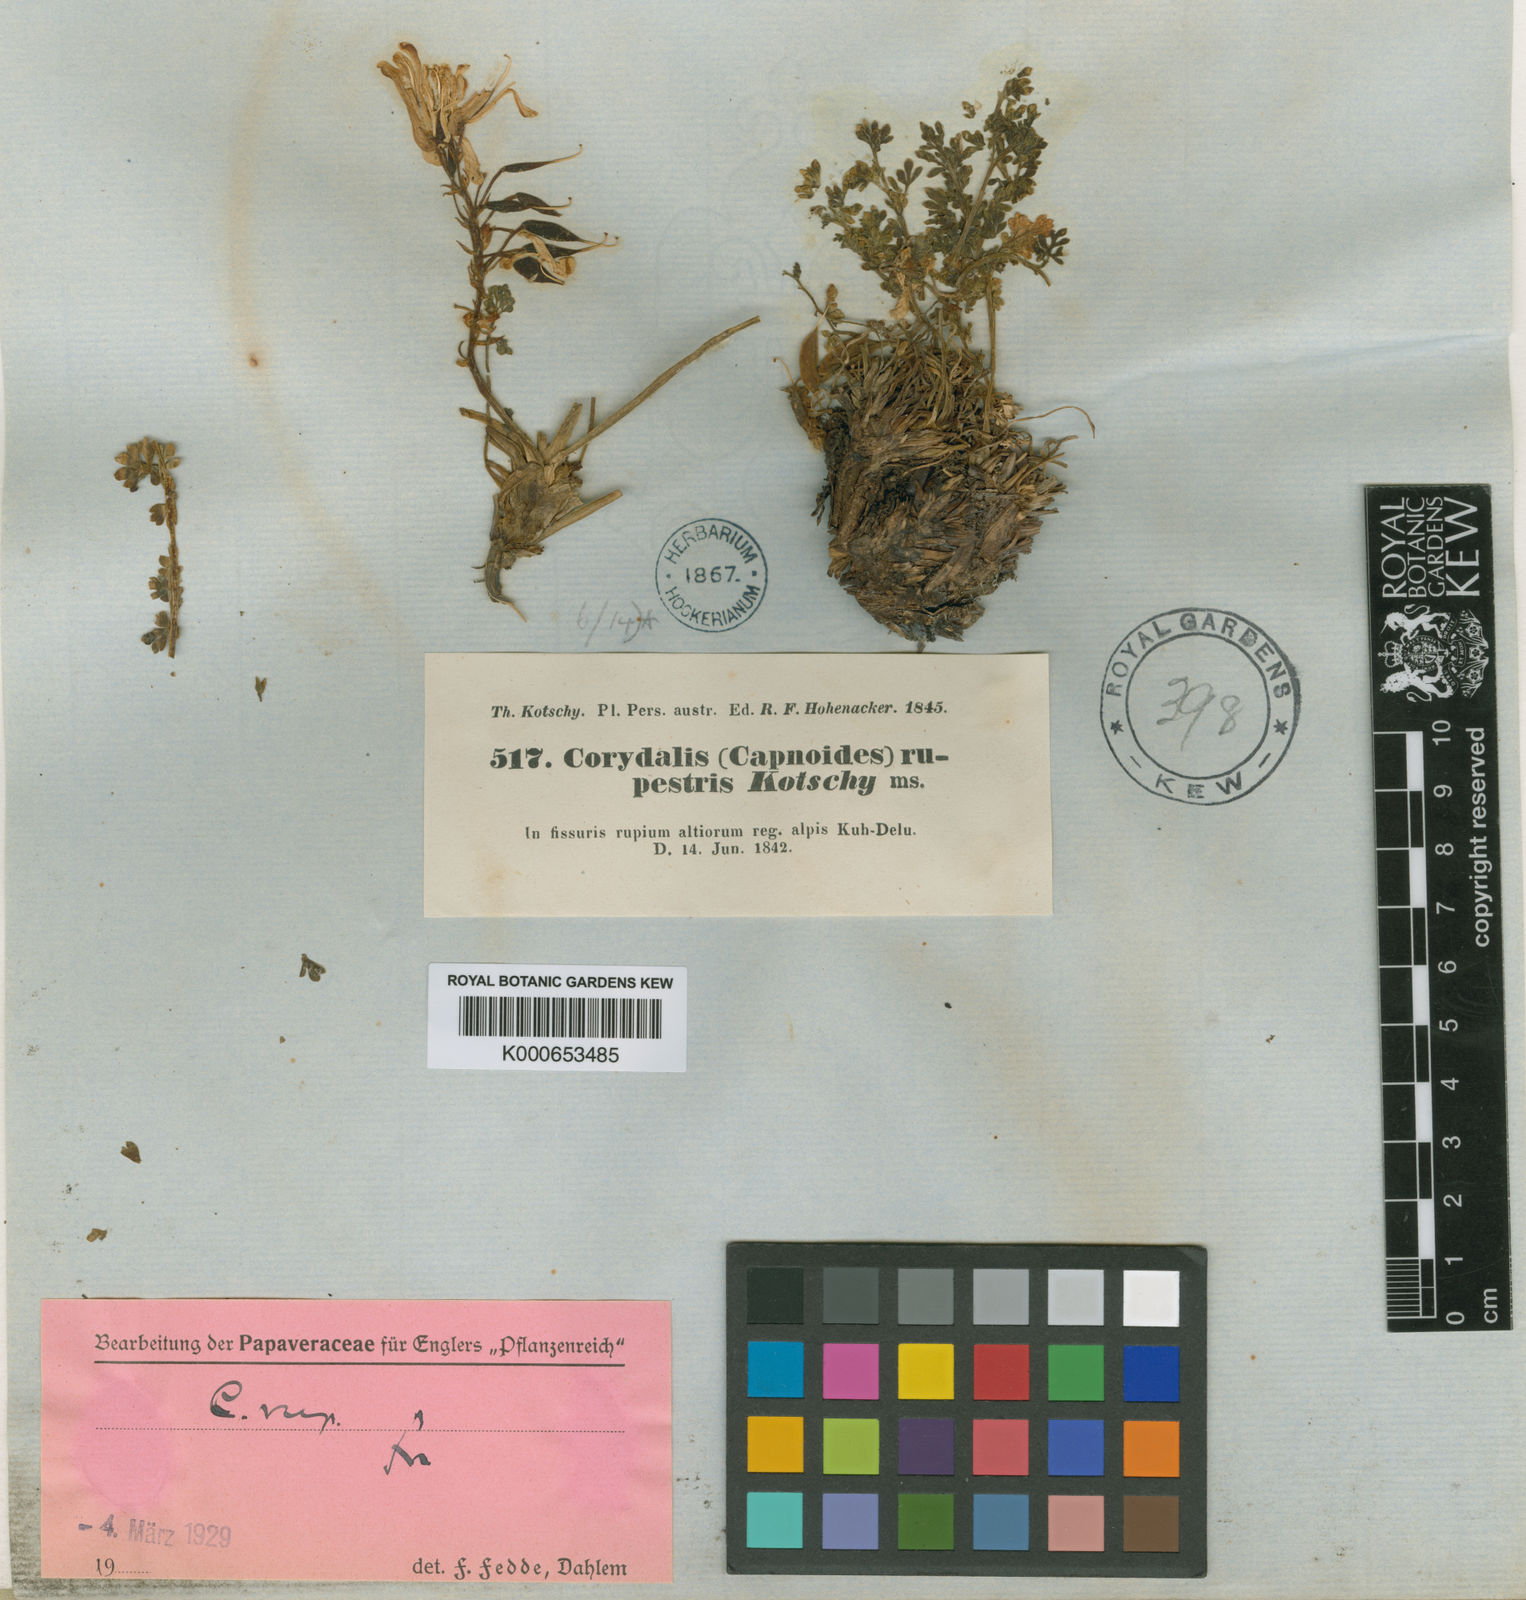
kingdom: Plantae
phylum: Tracheophyta
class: Magnoliopsida
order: Ranunculales
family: Papaveraceae
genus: Corydalis
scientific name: Corydalis
